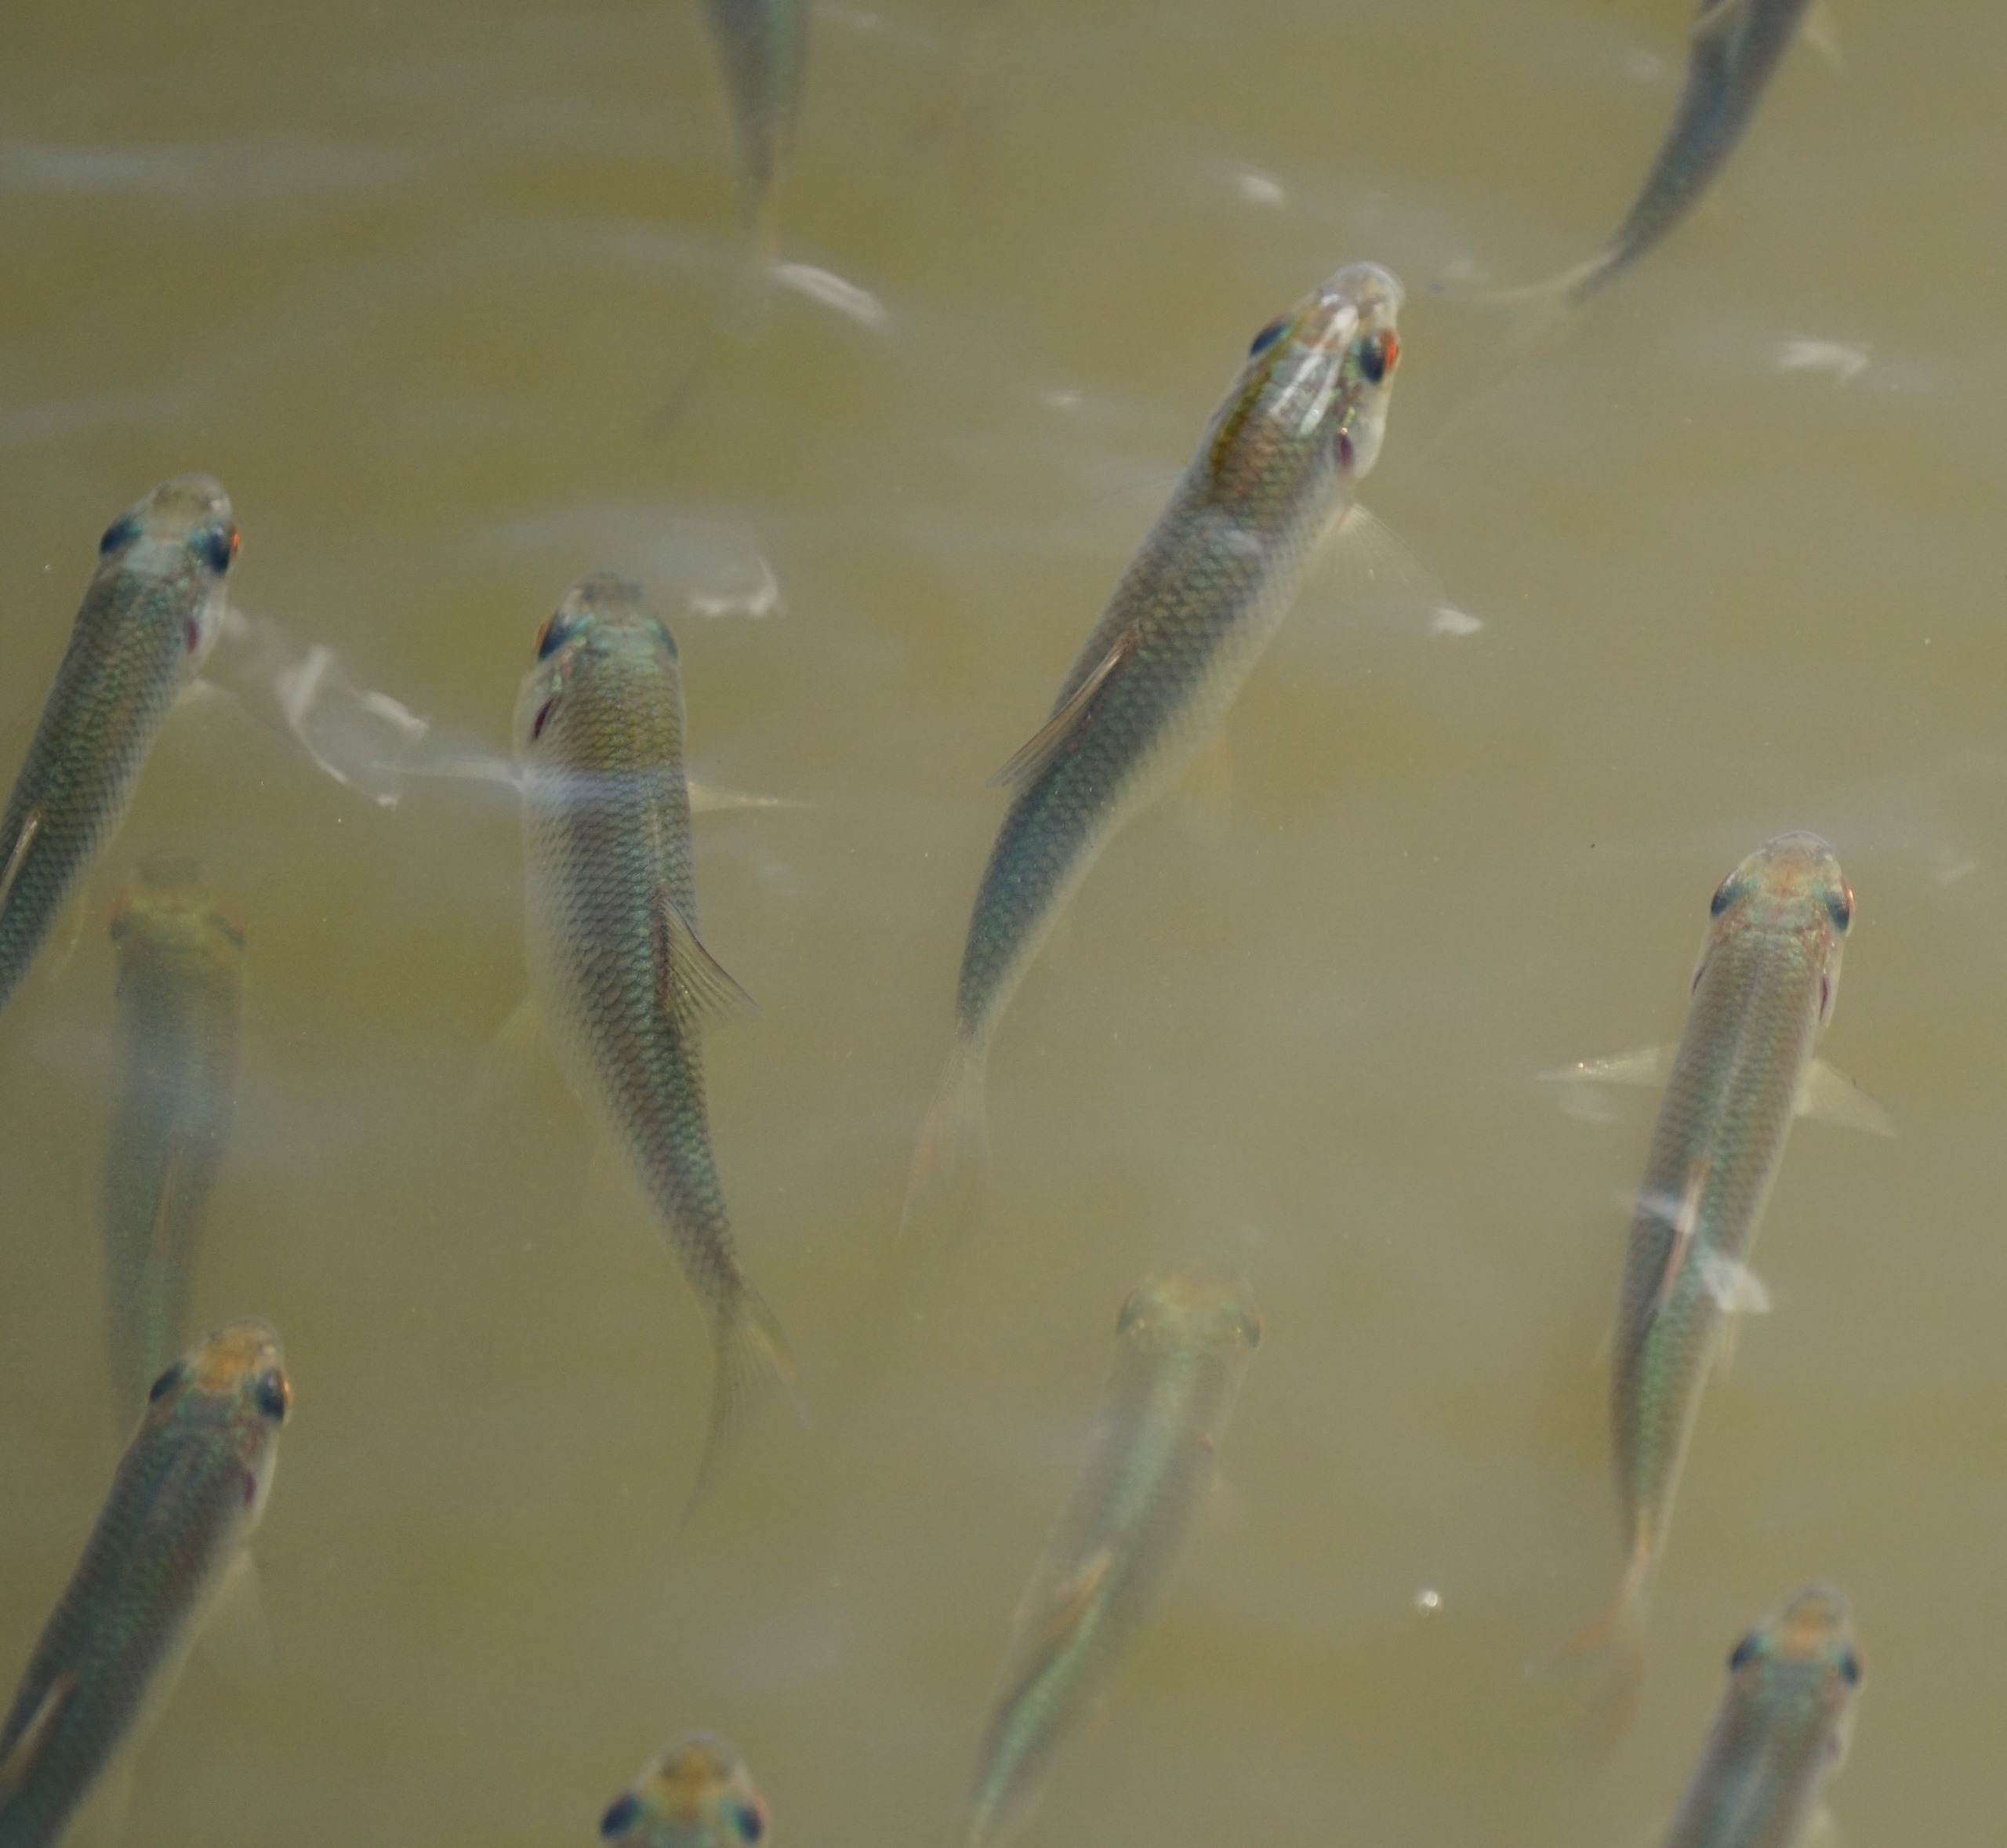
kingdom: Animalia
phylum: Chordata
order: Cypriniformes
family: Cyprinidae
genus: Rutilus
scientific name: Rutilus rutilus
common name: Skalle
